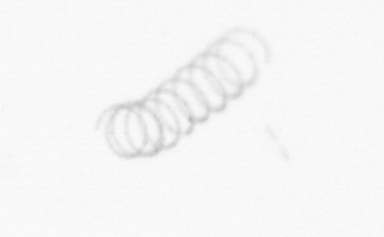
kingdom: Chromista
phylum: Ochrophyta
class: Bacillariophyceae
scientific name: Bacillariophyceae
